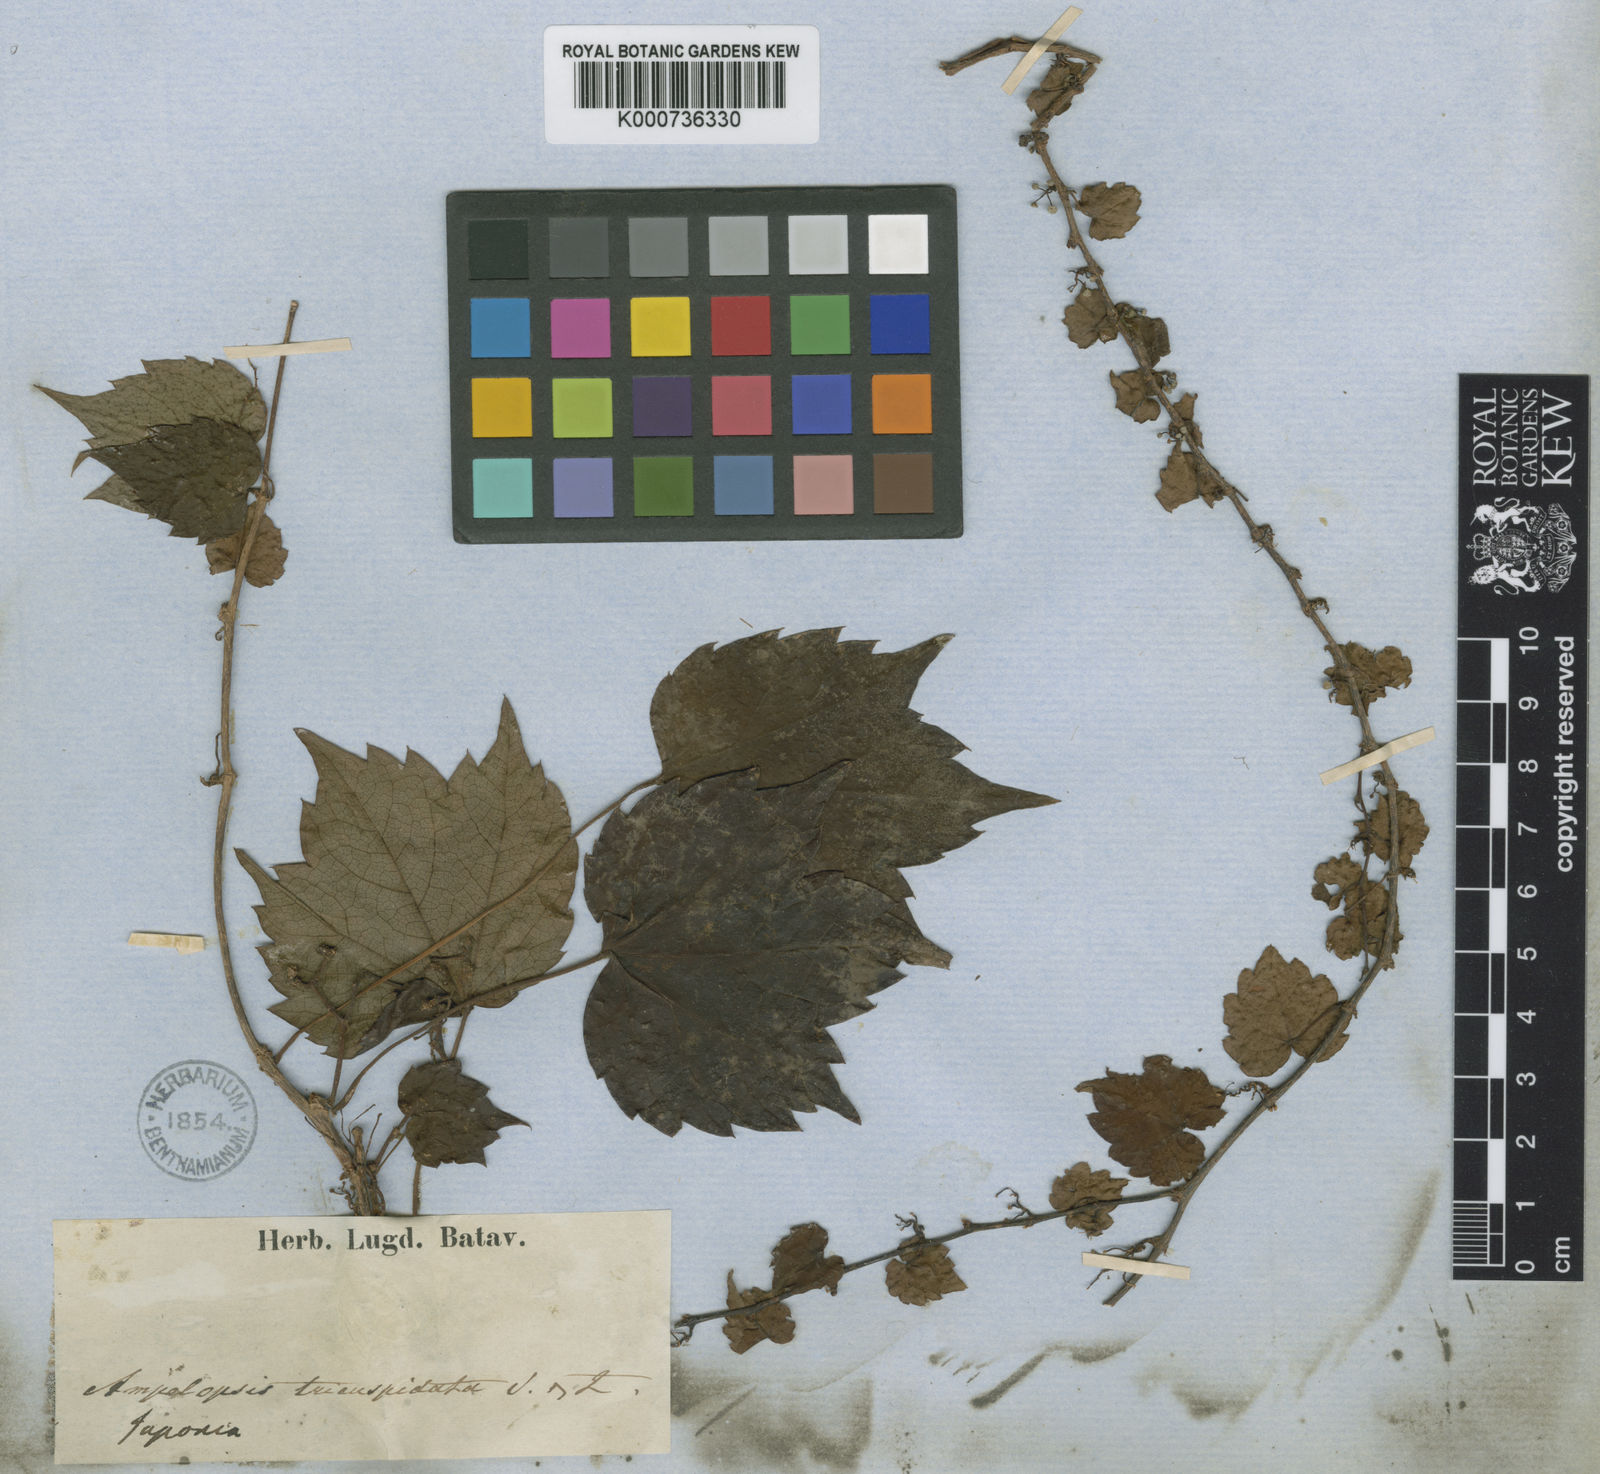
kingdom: Plantae
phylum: Tracheophyta
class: Magnoliopsida
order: Vitales
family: Vitaceae
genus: Parthenocissus
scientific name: Parthenocissus tricuspidata
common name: Boston ivy
